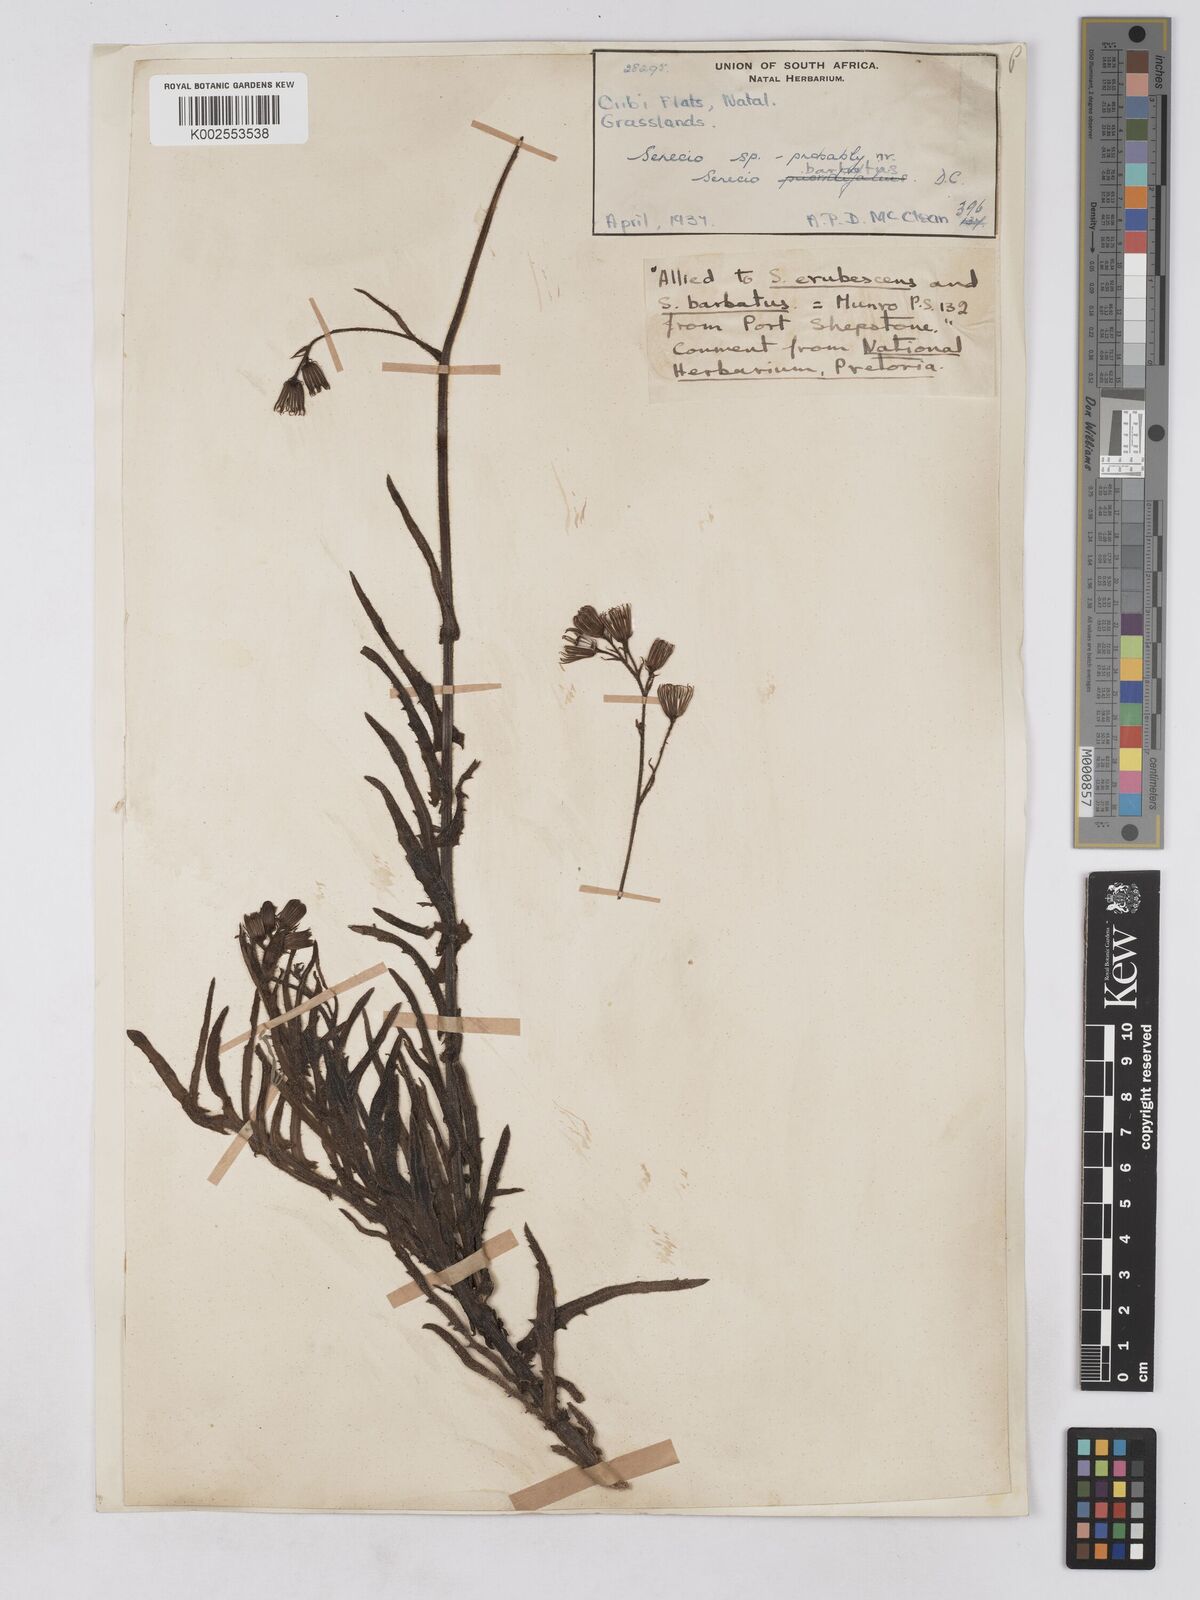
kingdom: Plantae
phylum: Tracheophyta
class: Magnoliopsida
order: Asterales
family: Asteraceae
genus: Senecio
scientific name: Senecio sandersonii
